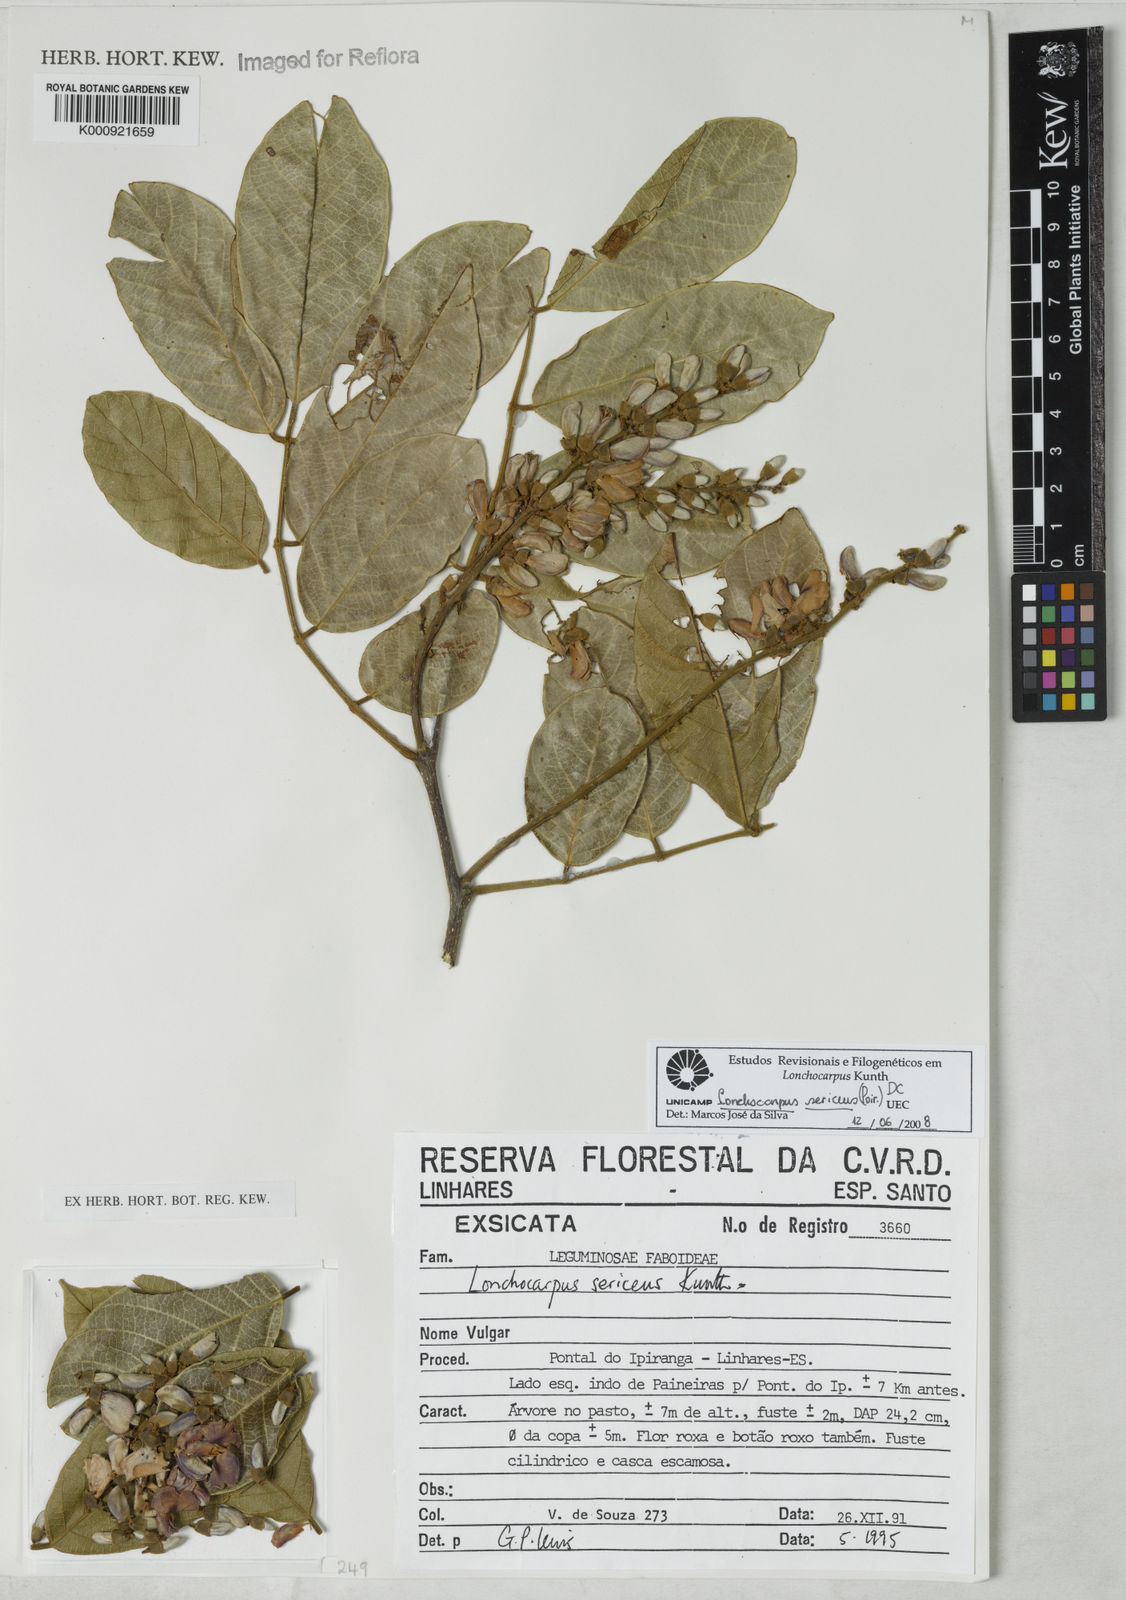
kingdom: Plantae
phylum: Tracheophyta
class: Magnoliopsida
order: Fabales
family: Fabaceae
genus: Lonchocarpus
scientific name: Lonchocarpus sericeus
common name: Savonette
